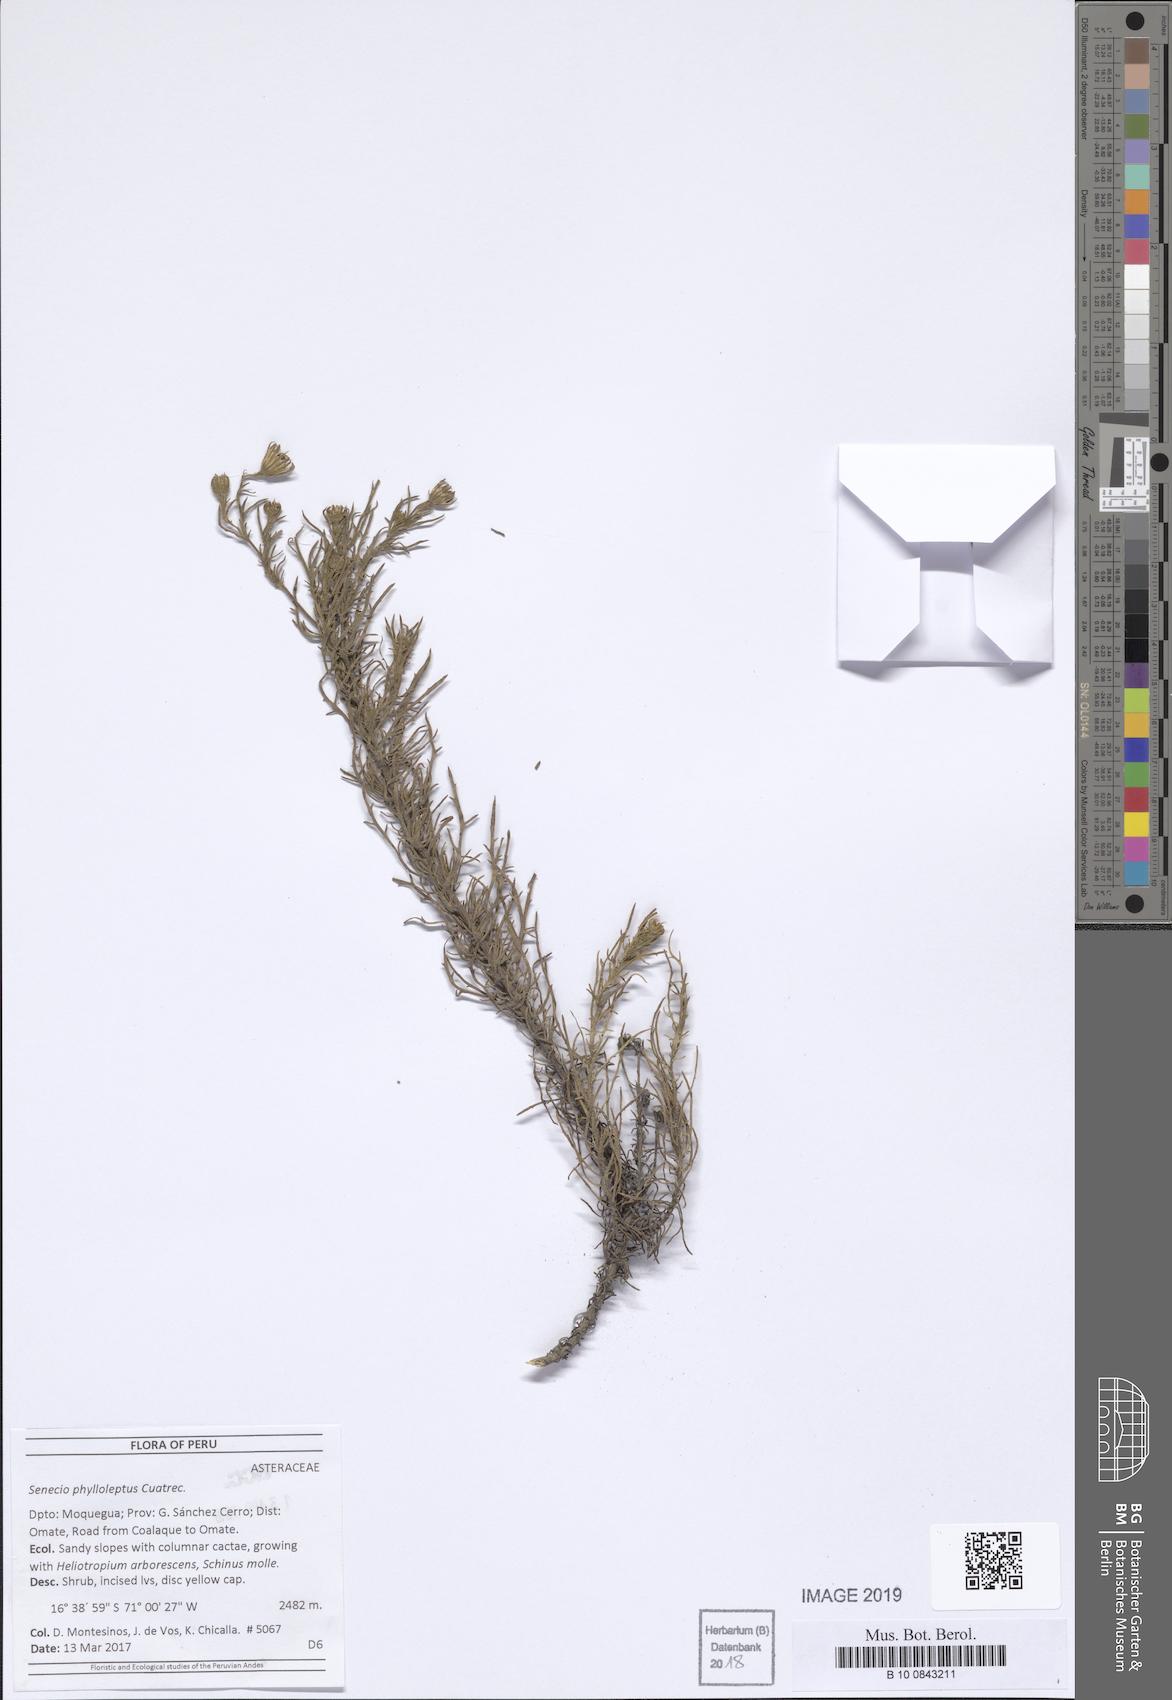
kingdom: Plantae
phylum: Tracheophyta
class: Magnoliopsida
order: Asterales
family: Asteraceae
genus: Senecio
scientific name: Senecio phylloleptus
